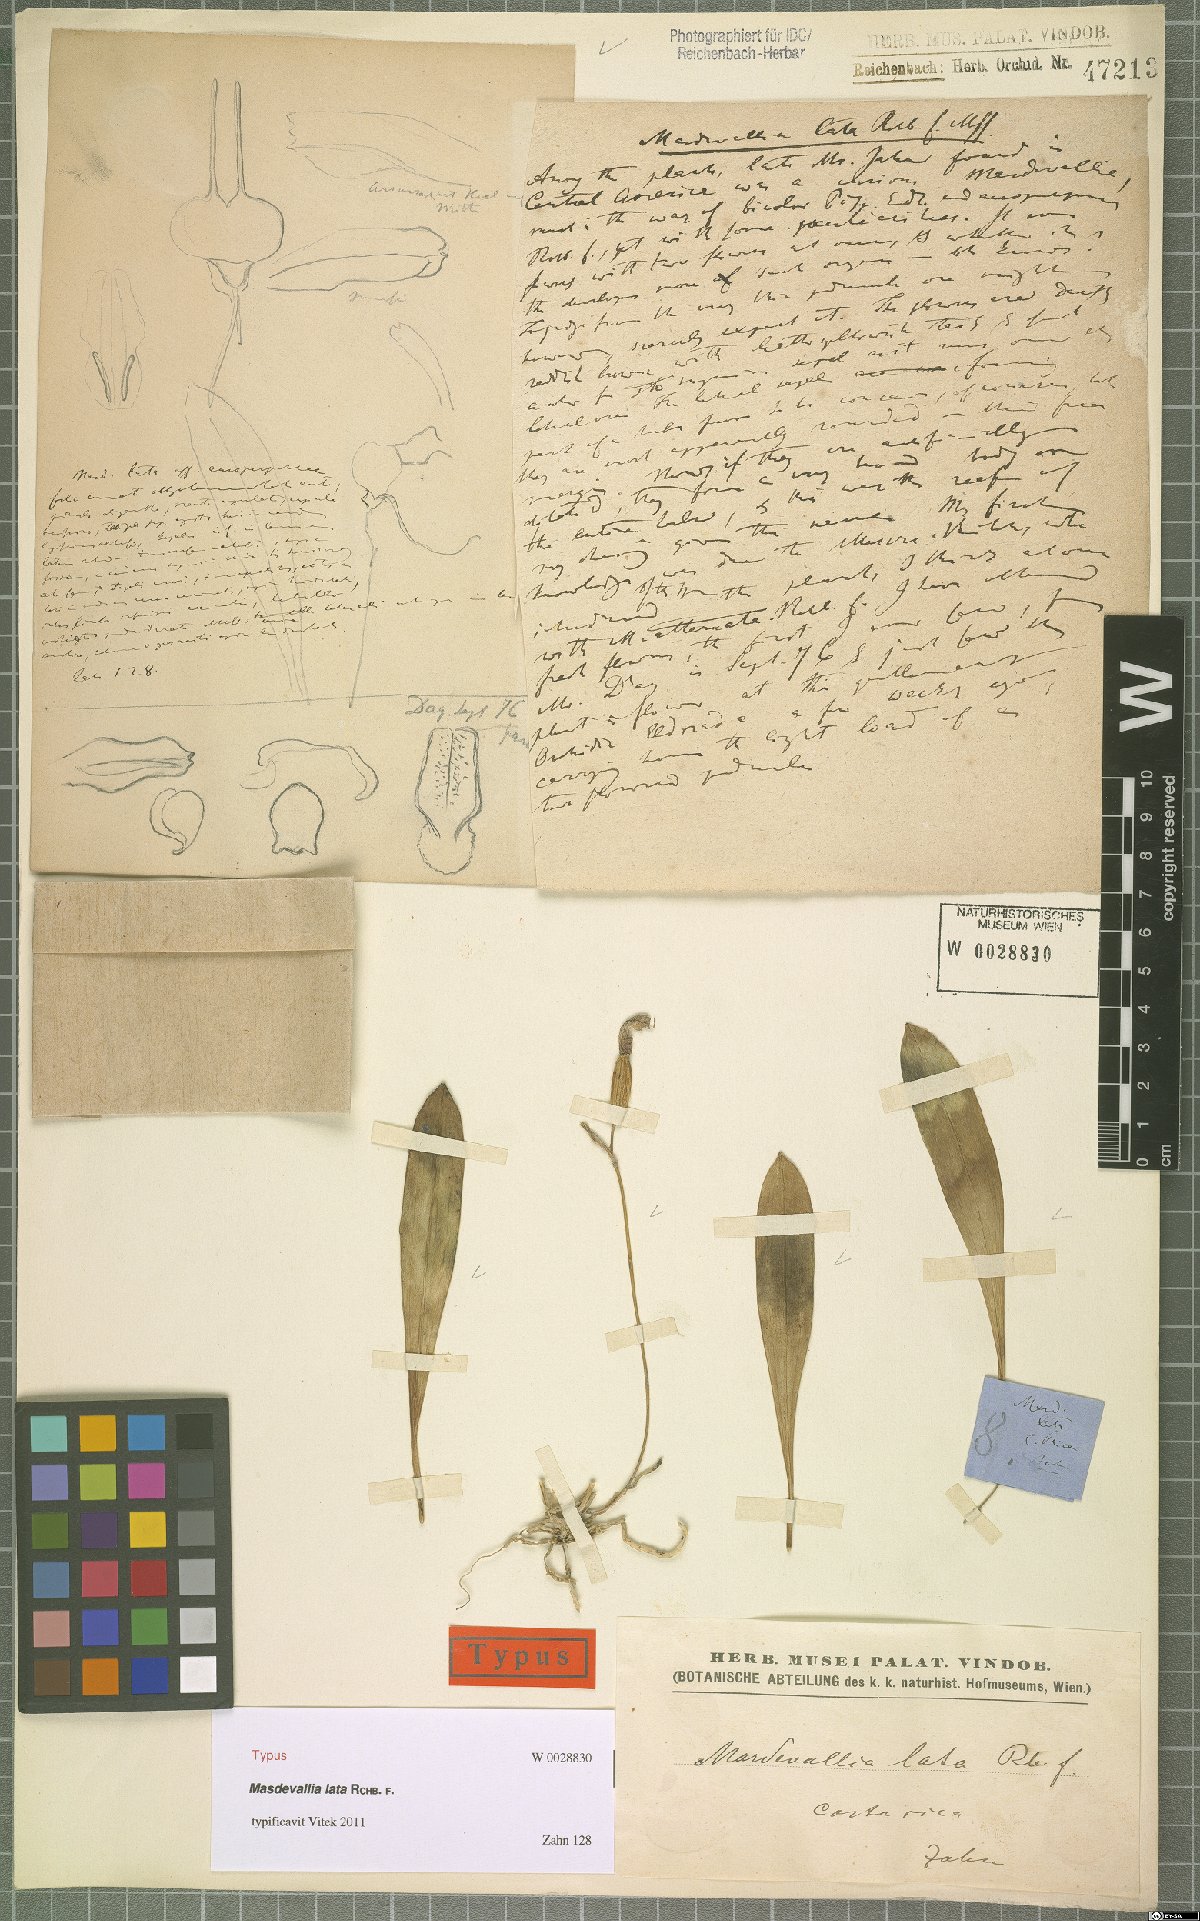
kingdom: Plantae
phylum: Tracheophyta
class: Liliopsida
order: Asparagales
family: Orchidaceae
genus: Masdevallia
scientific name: Masdevallia lata
